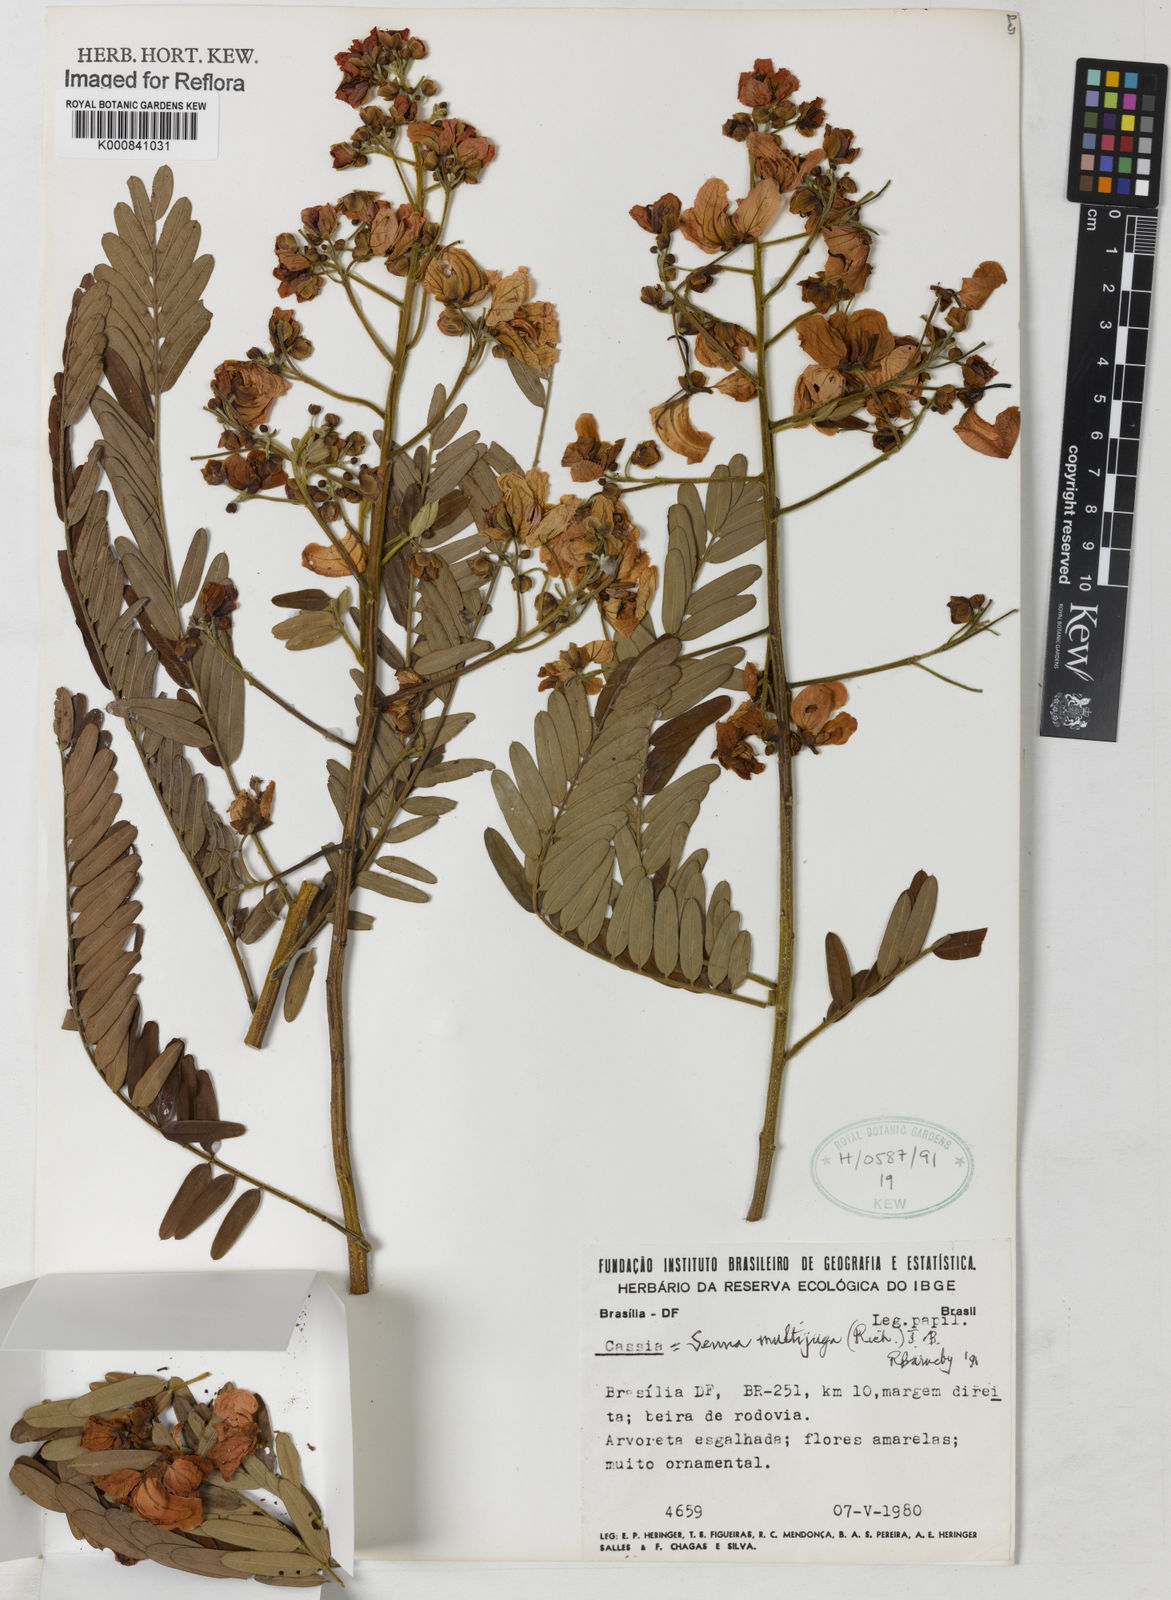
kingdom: Plantae
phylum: Tracheophyta
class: Magnoliopsida
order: Fabales
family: Fabaceae
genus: Senna
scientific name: Senna multijuga
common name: False sicklepod
